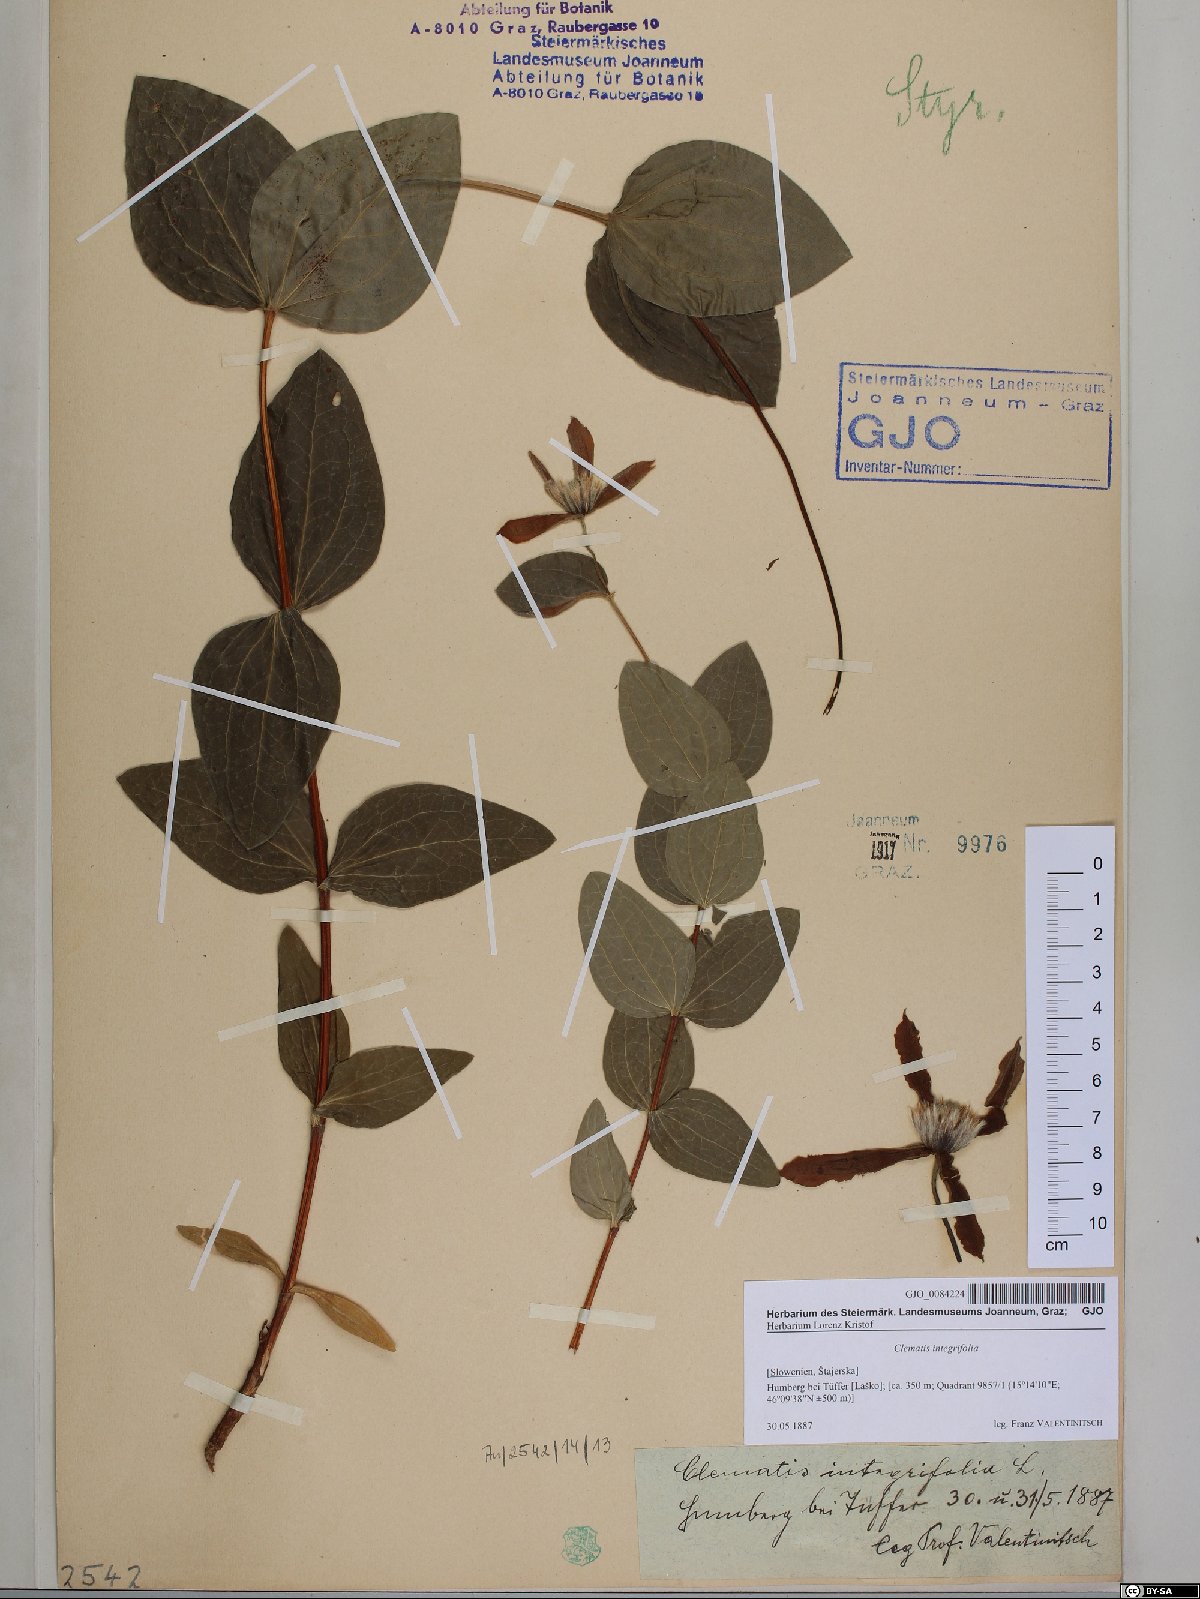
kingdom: Plantae
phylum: Tracheophyta
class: Magnoliopsida
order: Ranunculales
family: Ranunculaceae
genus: Clematis
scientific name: Clematis integrifolia
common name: Solitary clematis
